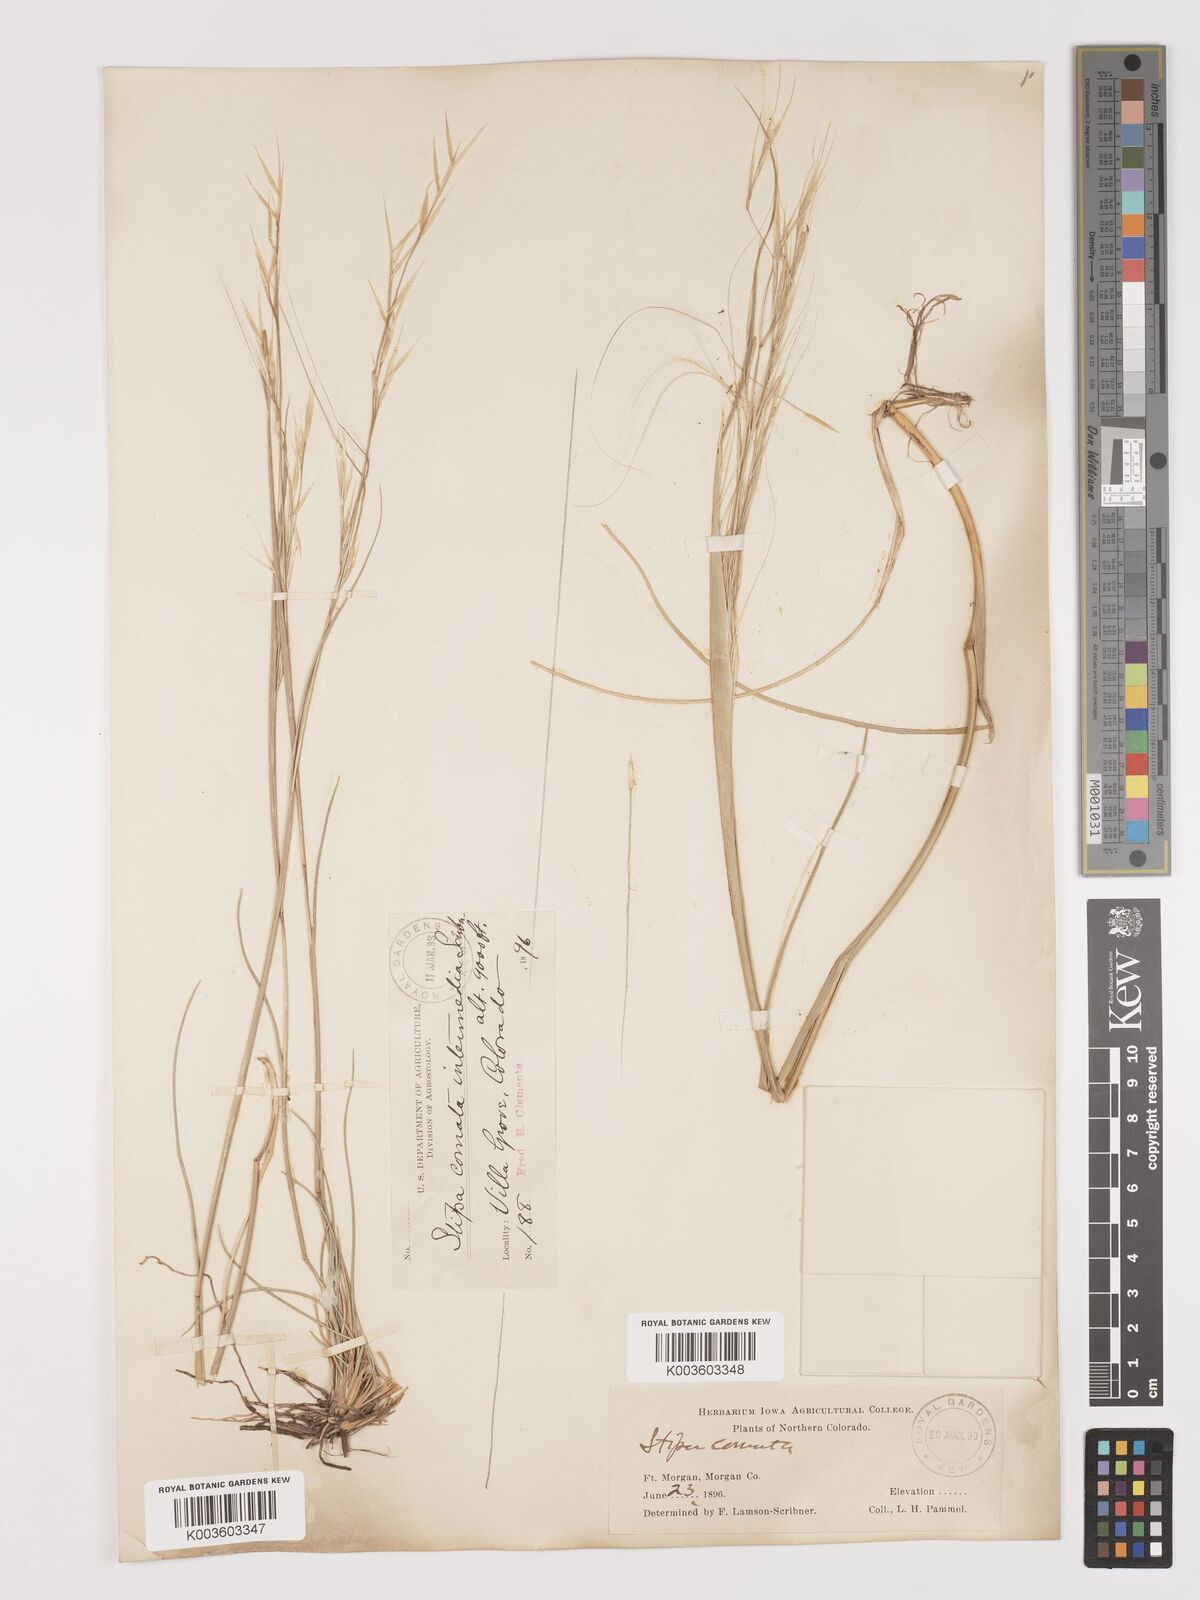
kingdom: Plantae
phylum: Tracheophyta
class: Liliopsida
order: Poales
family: Poaceae
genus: Hesperostipa
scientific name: Hesperostipa comata
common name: Needle-and-thread grass
